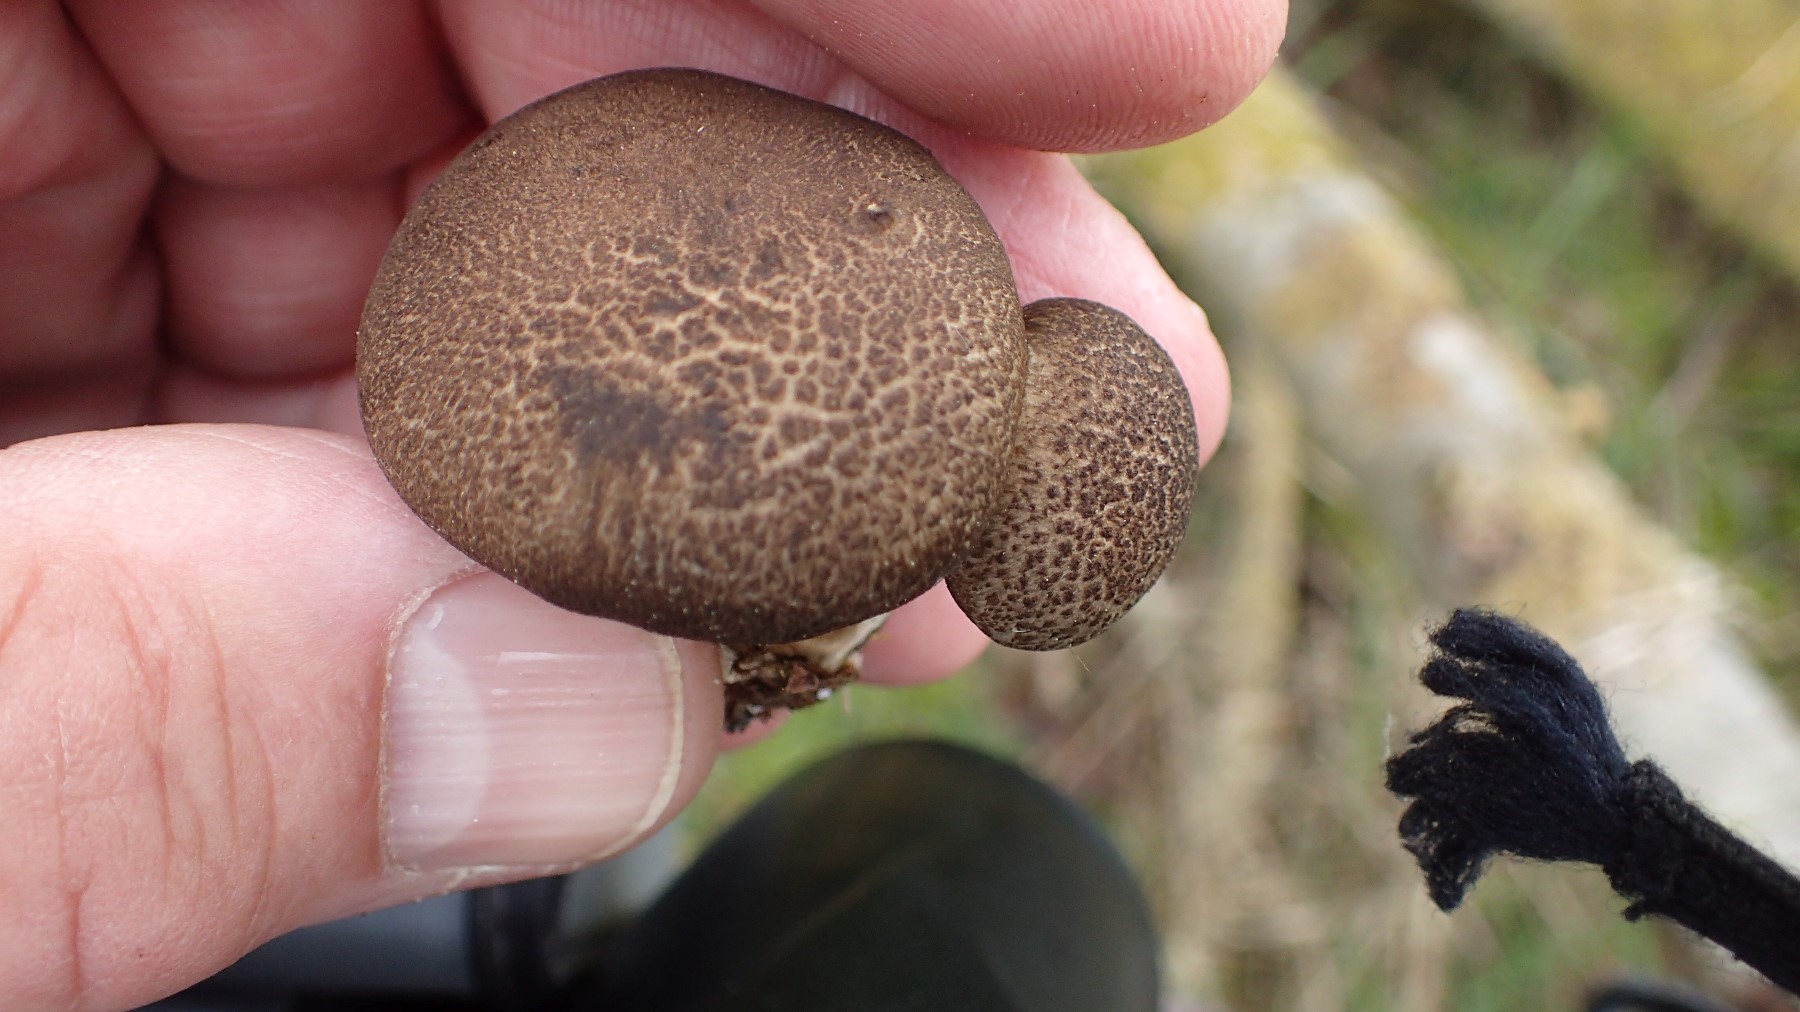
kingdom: Fungi
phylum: Basidiomycota
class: Agaricomycetes
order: Polyporales
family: Polyporaceae
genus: Lentinus
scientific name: Lentinus substrictus
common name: forårs-stilkporesvamp
